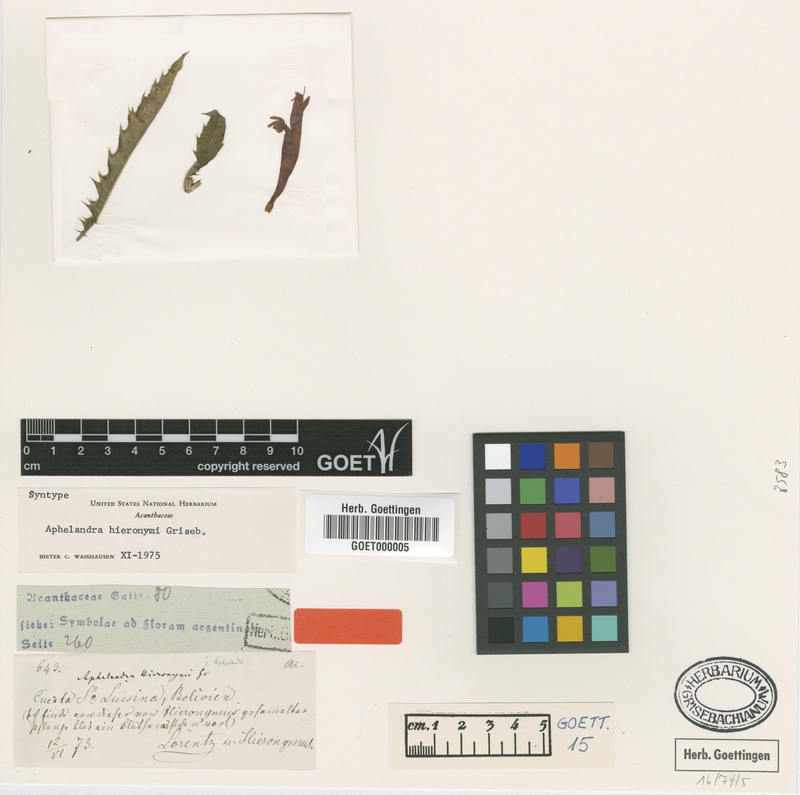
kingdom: Plantae
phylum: Tracheophyta
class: Magnoliopsida
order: Lamiales
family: Acanthaceae
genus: Aphelandra
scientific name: Aphelandra hieronymi
